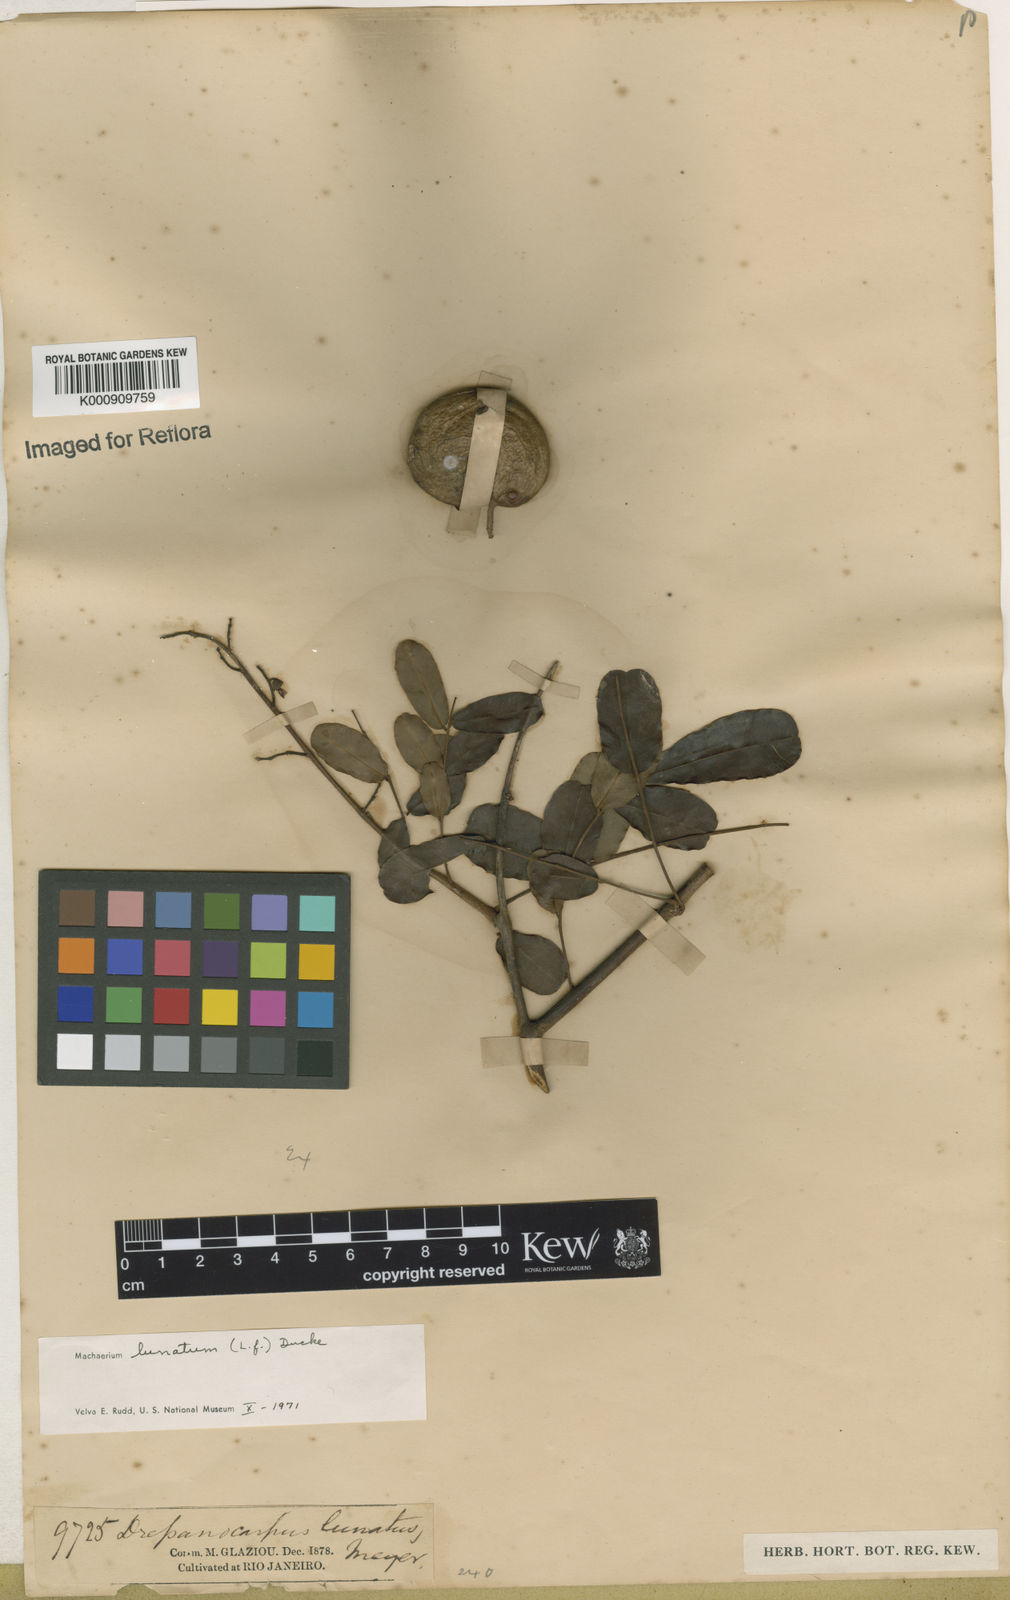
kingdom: Plantae
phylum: Tracheophyta
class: Magnoliopsida
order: Fabales
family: Fabaceae
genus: Machaerium
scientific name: Machaerium lunatum
